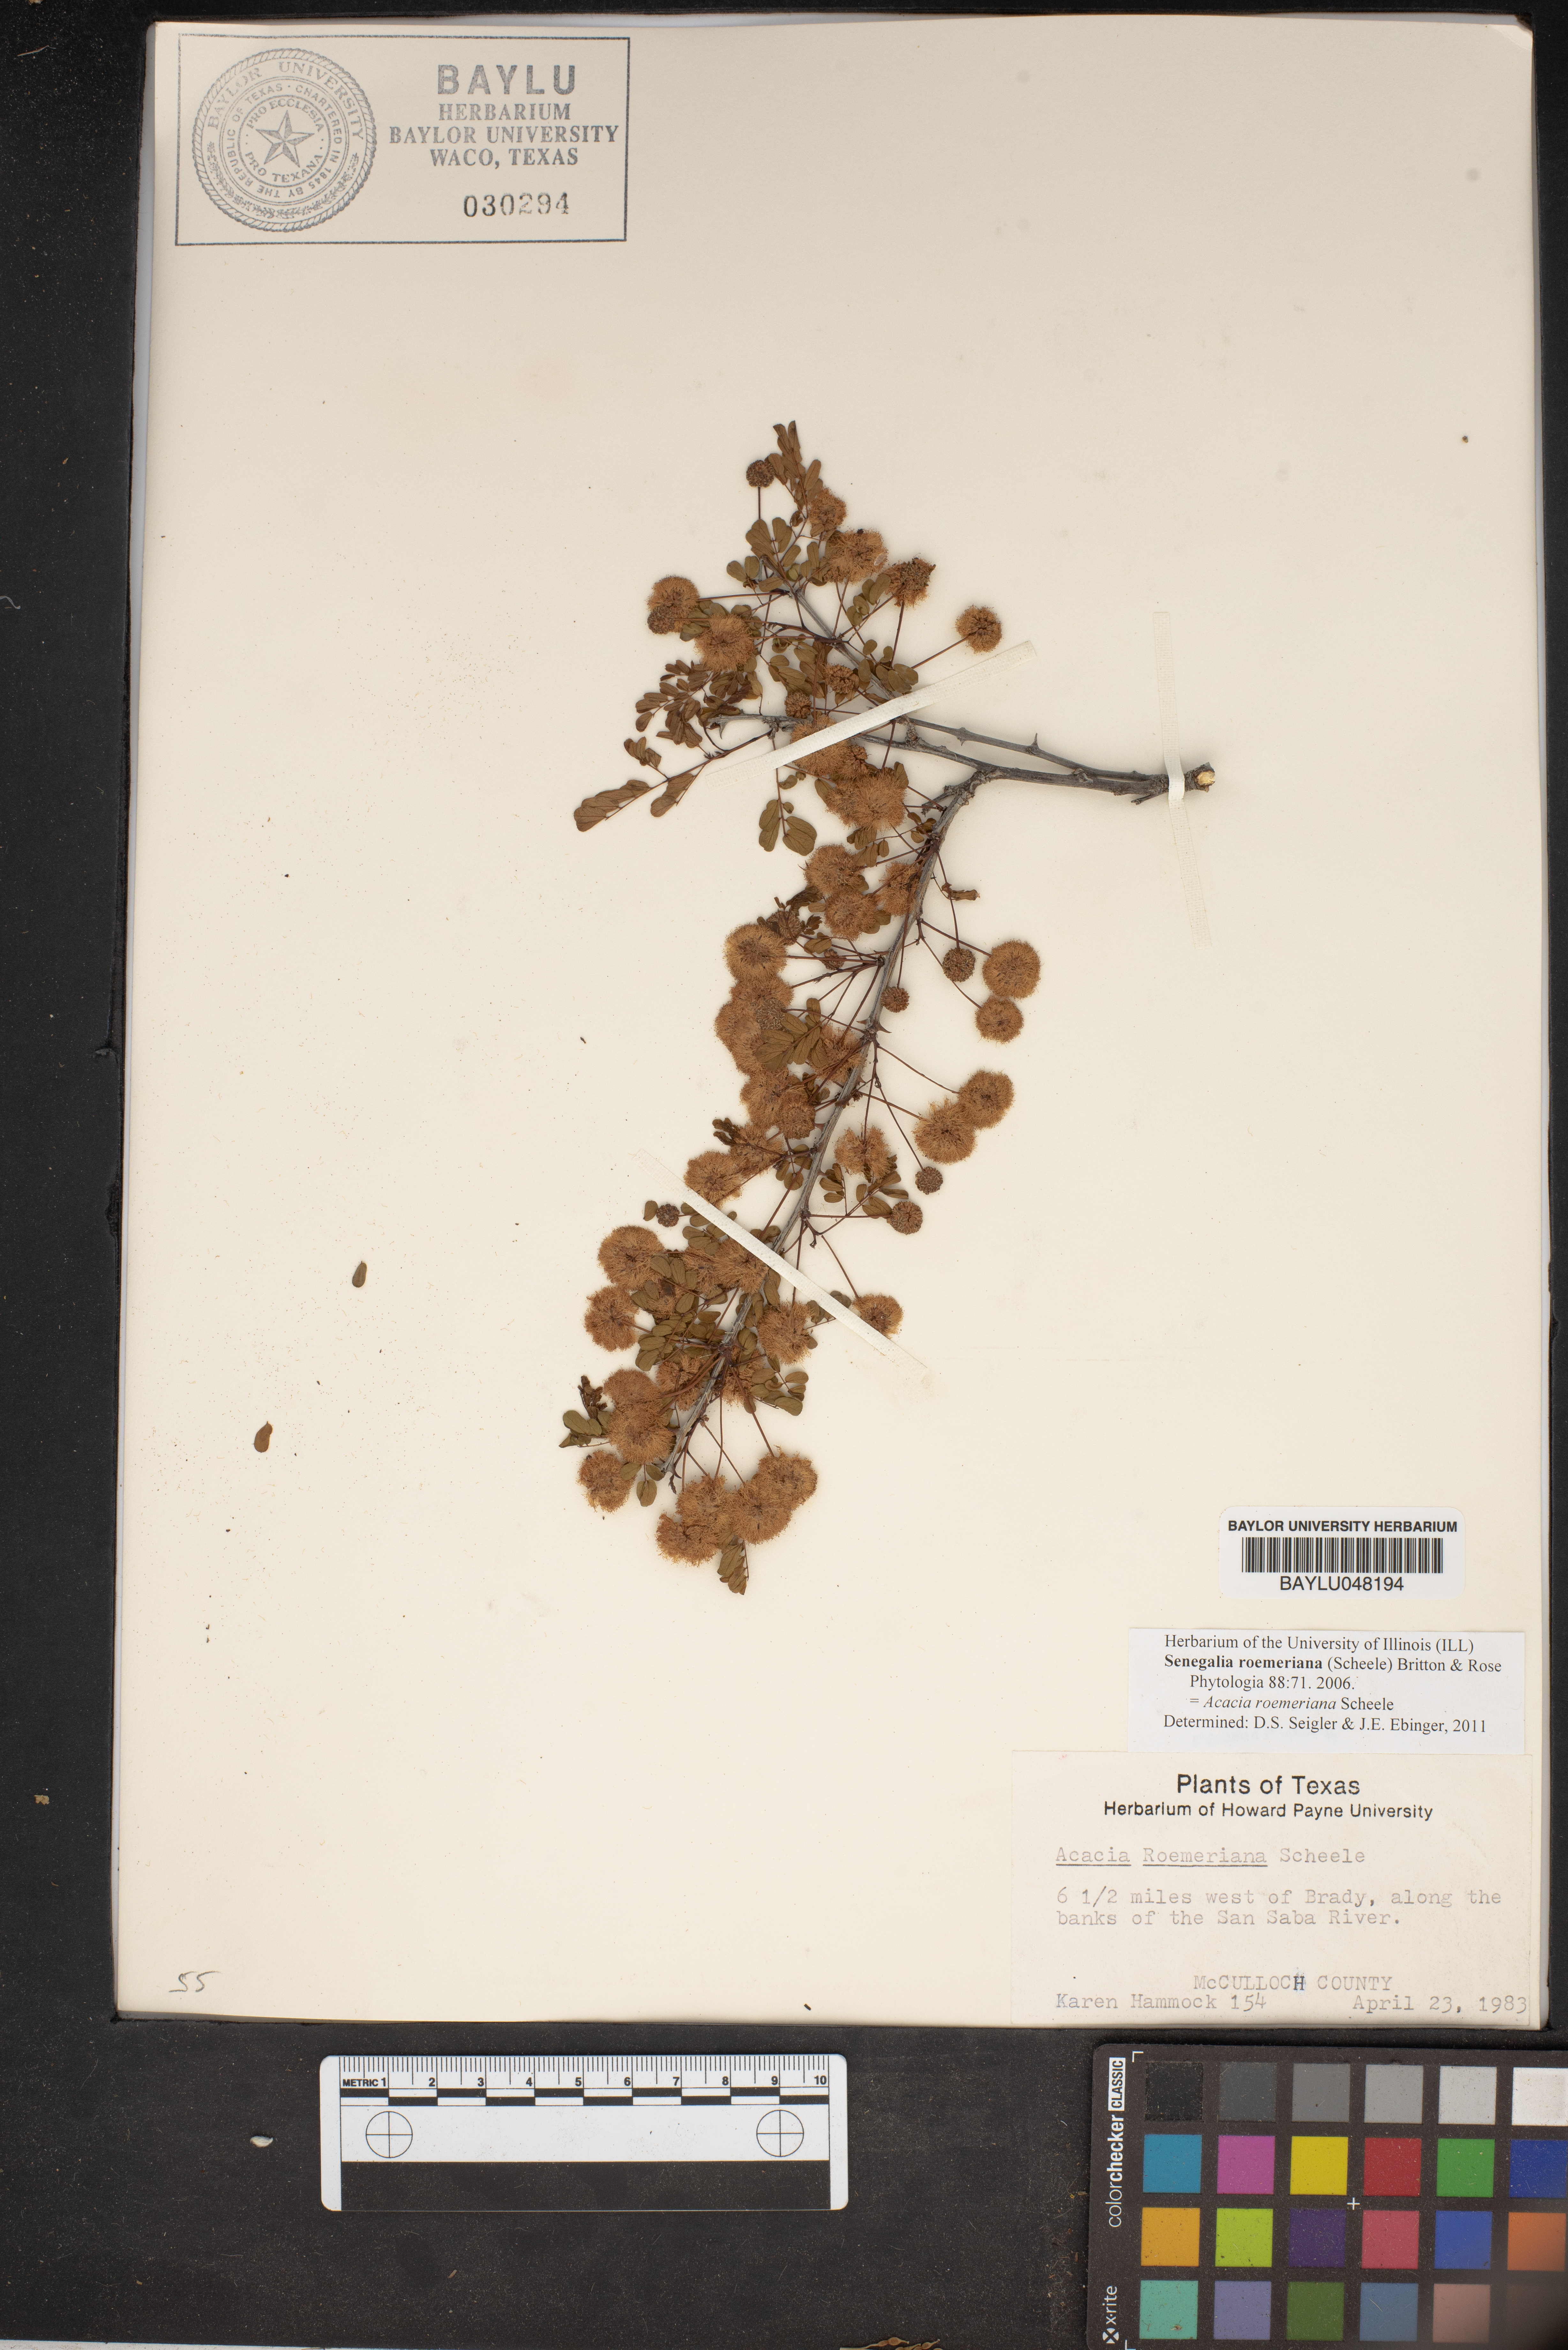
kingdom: Plantae
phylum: Tracheophyta
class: Magnoliopsida
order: Fabales
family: Fabaceae
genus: Senegalia
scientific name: Senegalia roemeriana
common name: Roemer's acacia
